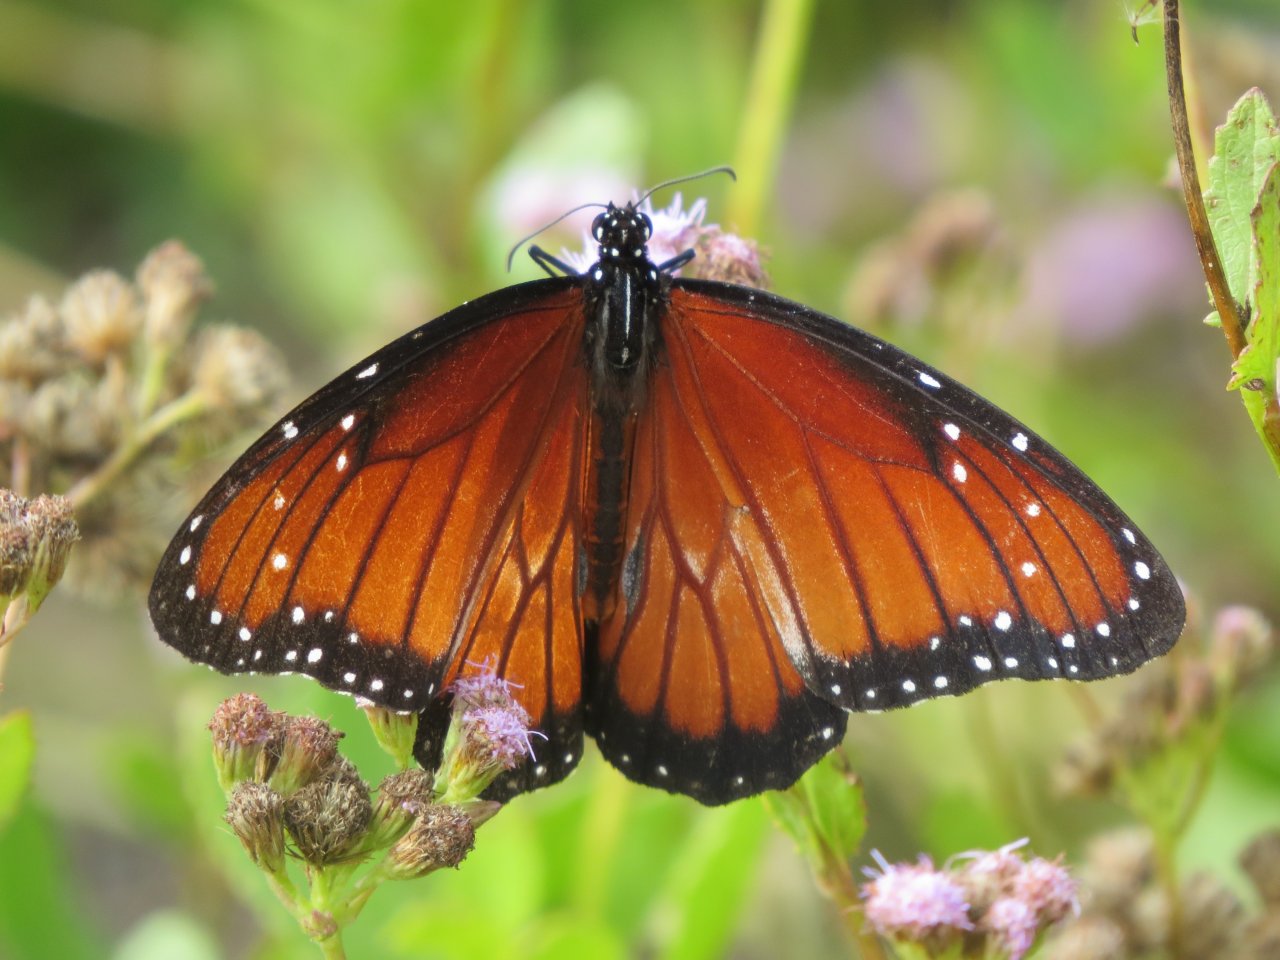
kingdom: Animalia
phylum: Arthropoda
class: Insecta
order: Lepidoptera
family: Nymphalidae
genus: Danaus
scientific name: Danaus eresimus
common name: Soldier
